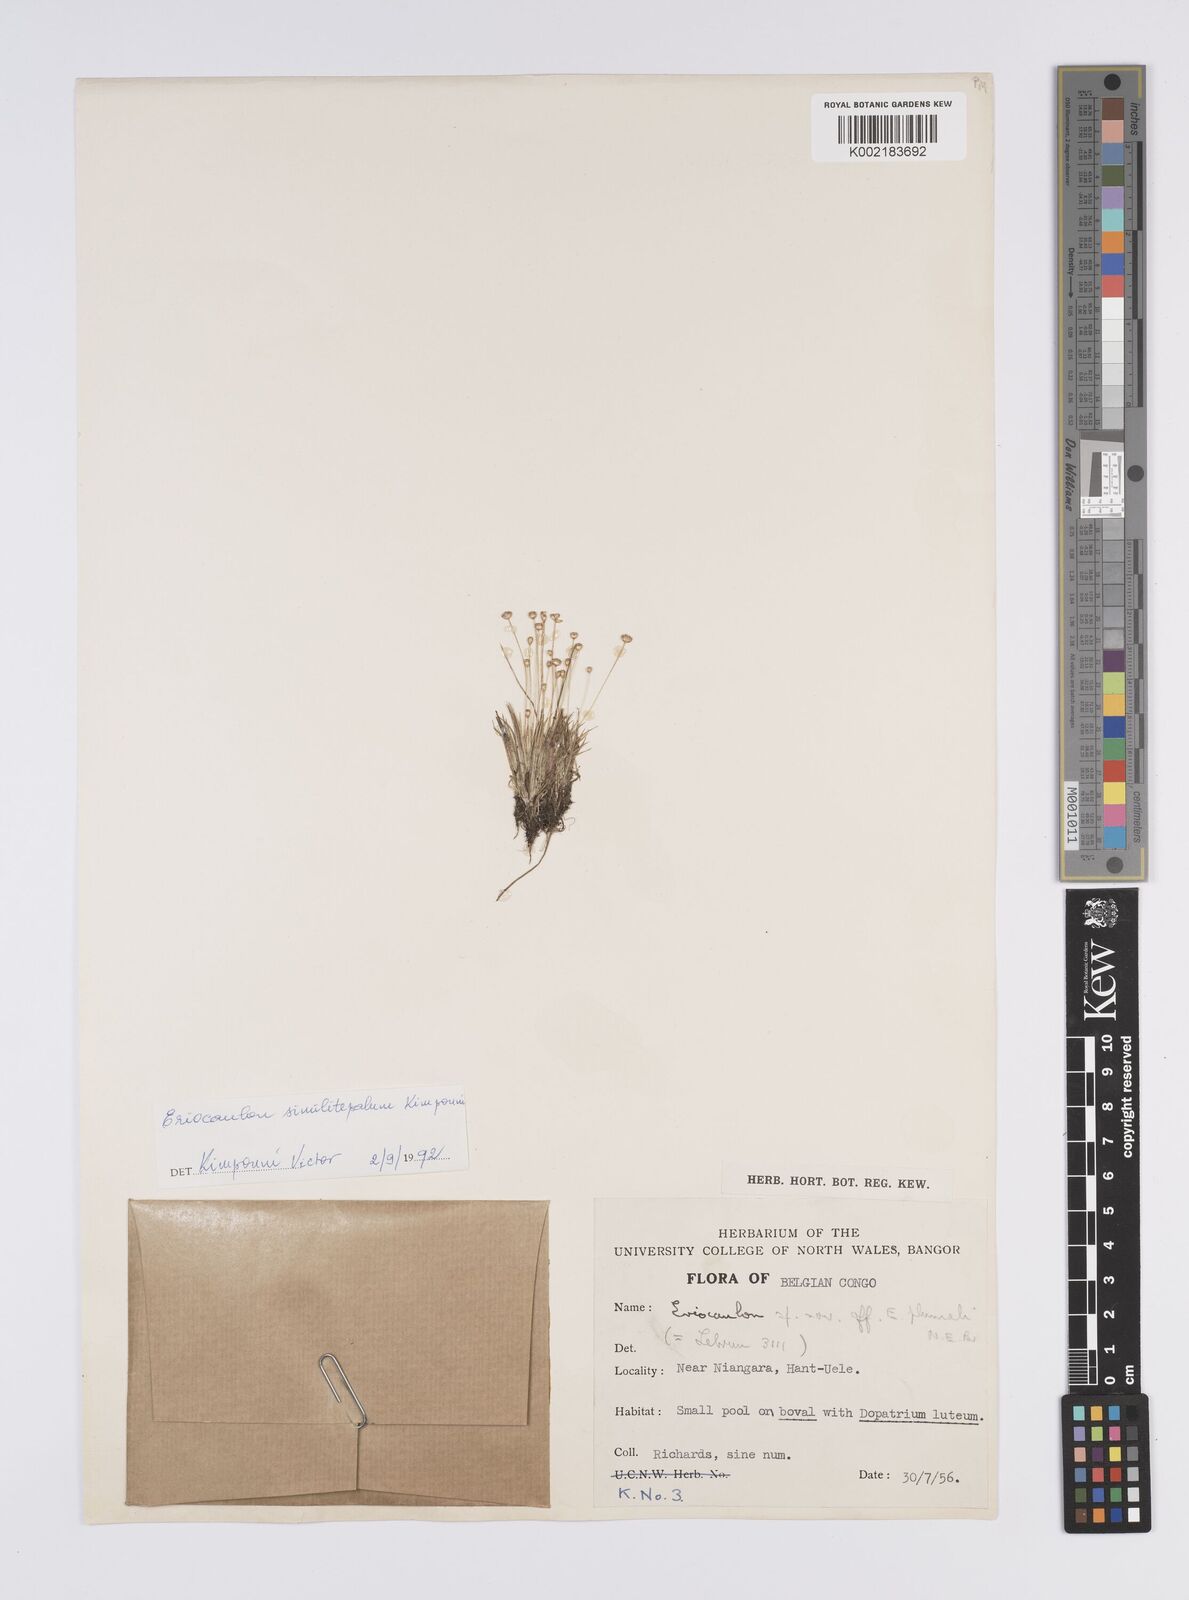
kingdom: Plantae
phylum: Tracheophyta
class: Liliopsida
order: Poales
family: Eriocaulaceae
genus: Eriocaulon
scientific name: Eriocaulon similitepalum
